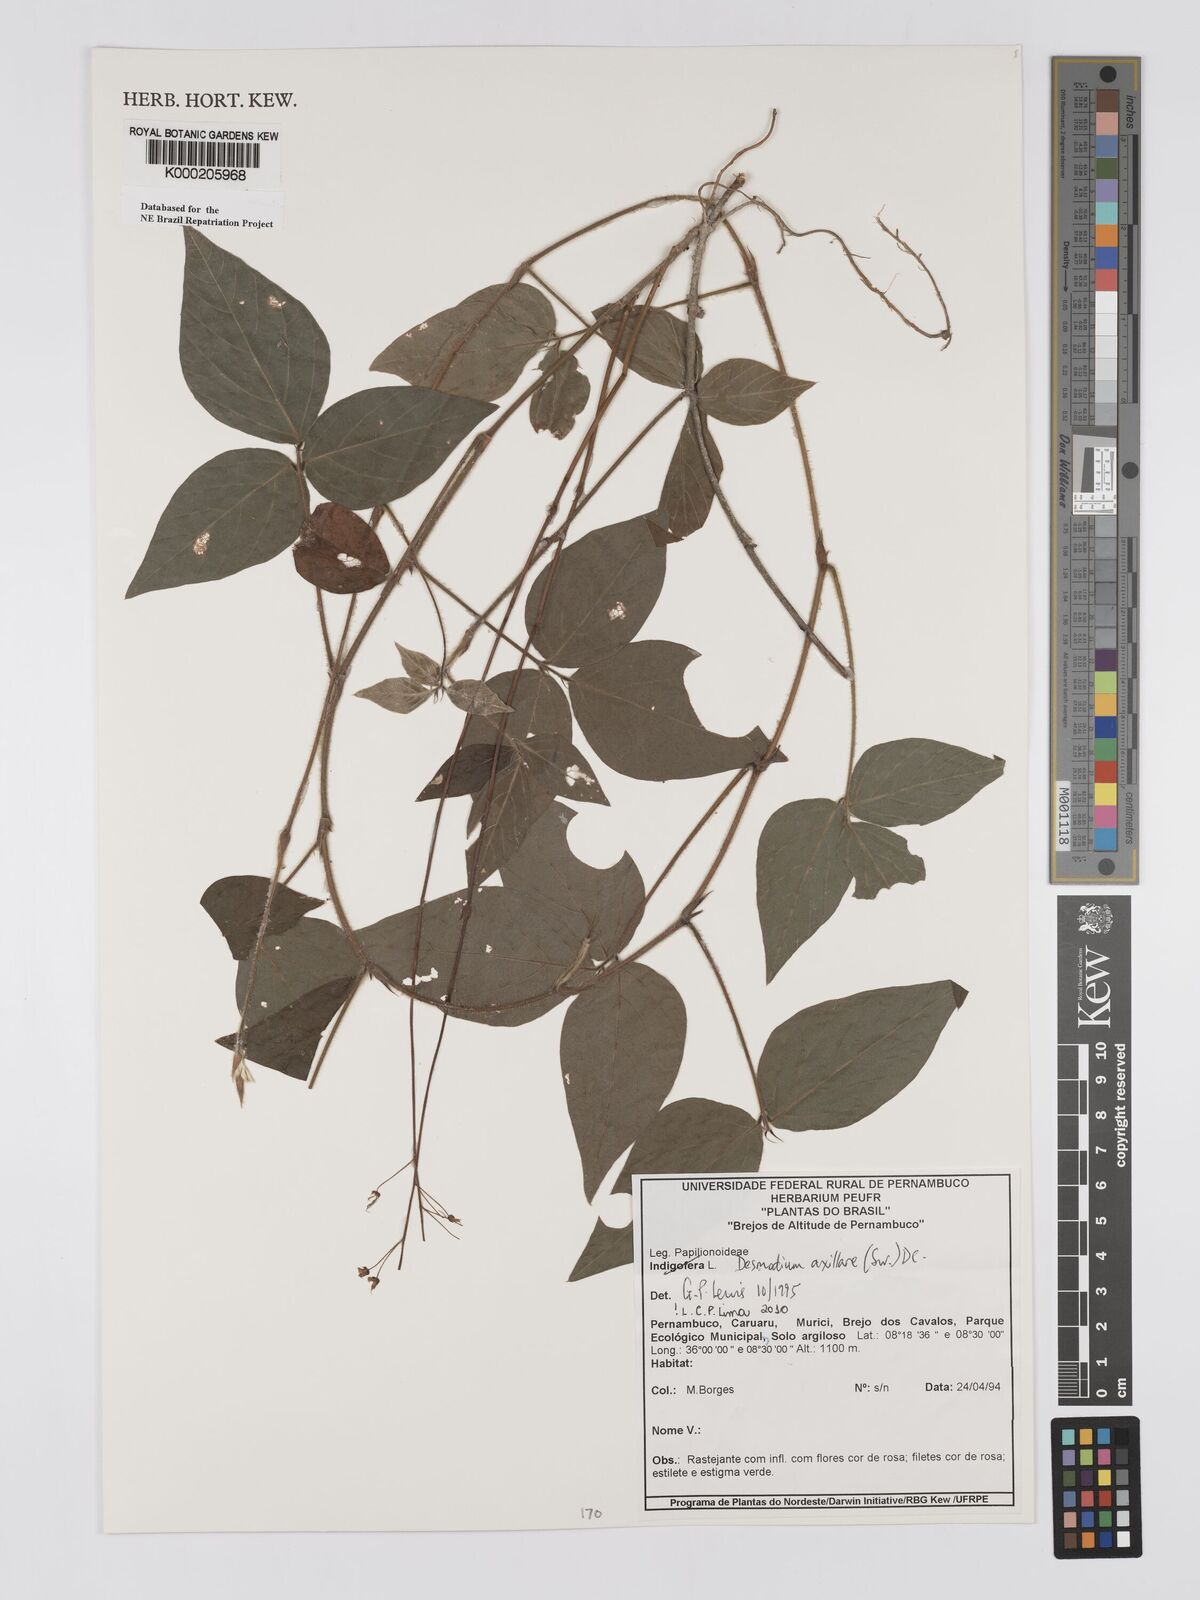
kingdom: Plantae
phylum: Tracheophyta
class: Magnoliopsida
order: Fabales
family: Fabaceae
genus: Desmodium
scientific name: Desmodium axillare
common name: Wire with
